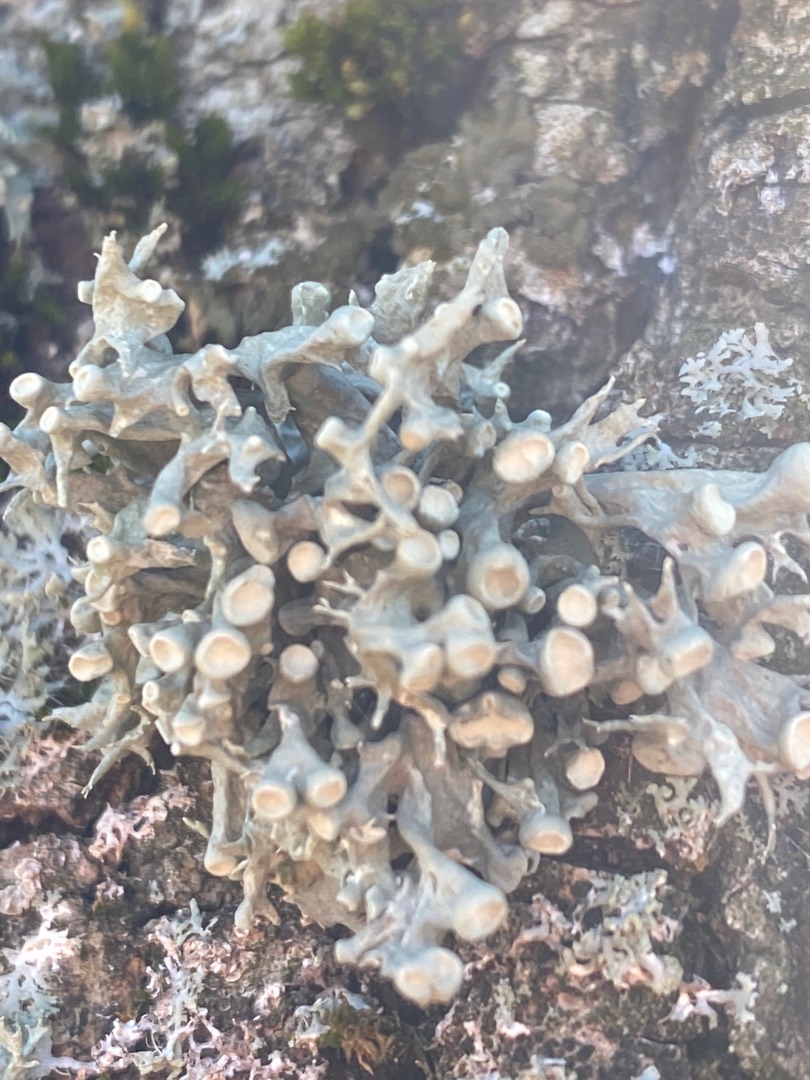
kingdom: Fungi
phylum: Ascomycota
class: Lecanoromycetes
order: Lecanorales
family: Ramalinaceae
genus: Ramalina
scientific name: Ramalina fastigiata
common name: Tue-grenlav
